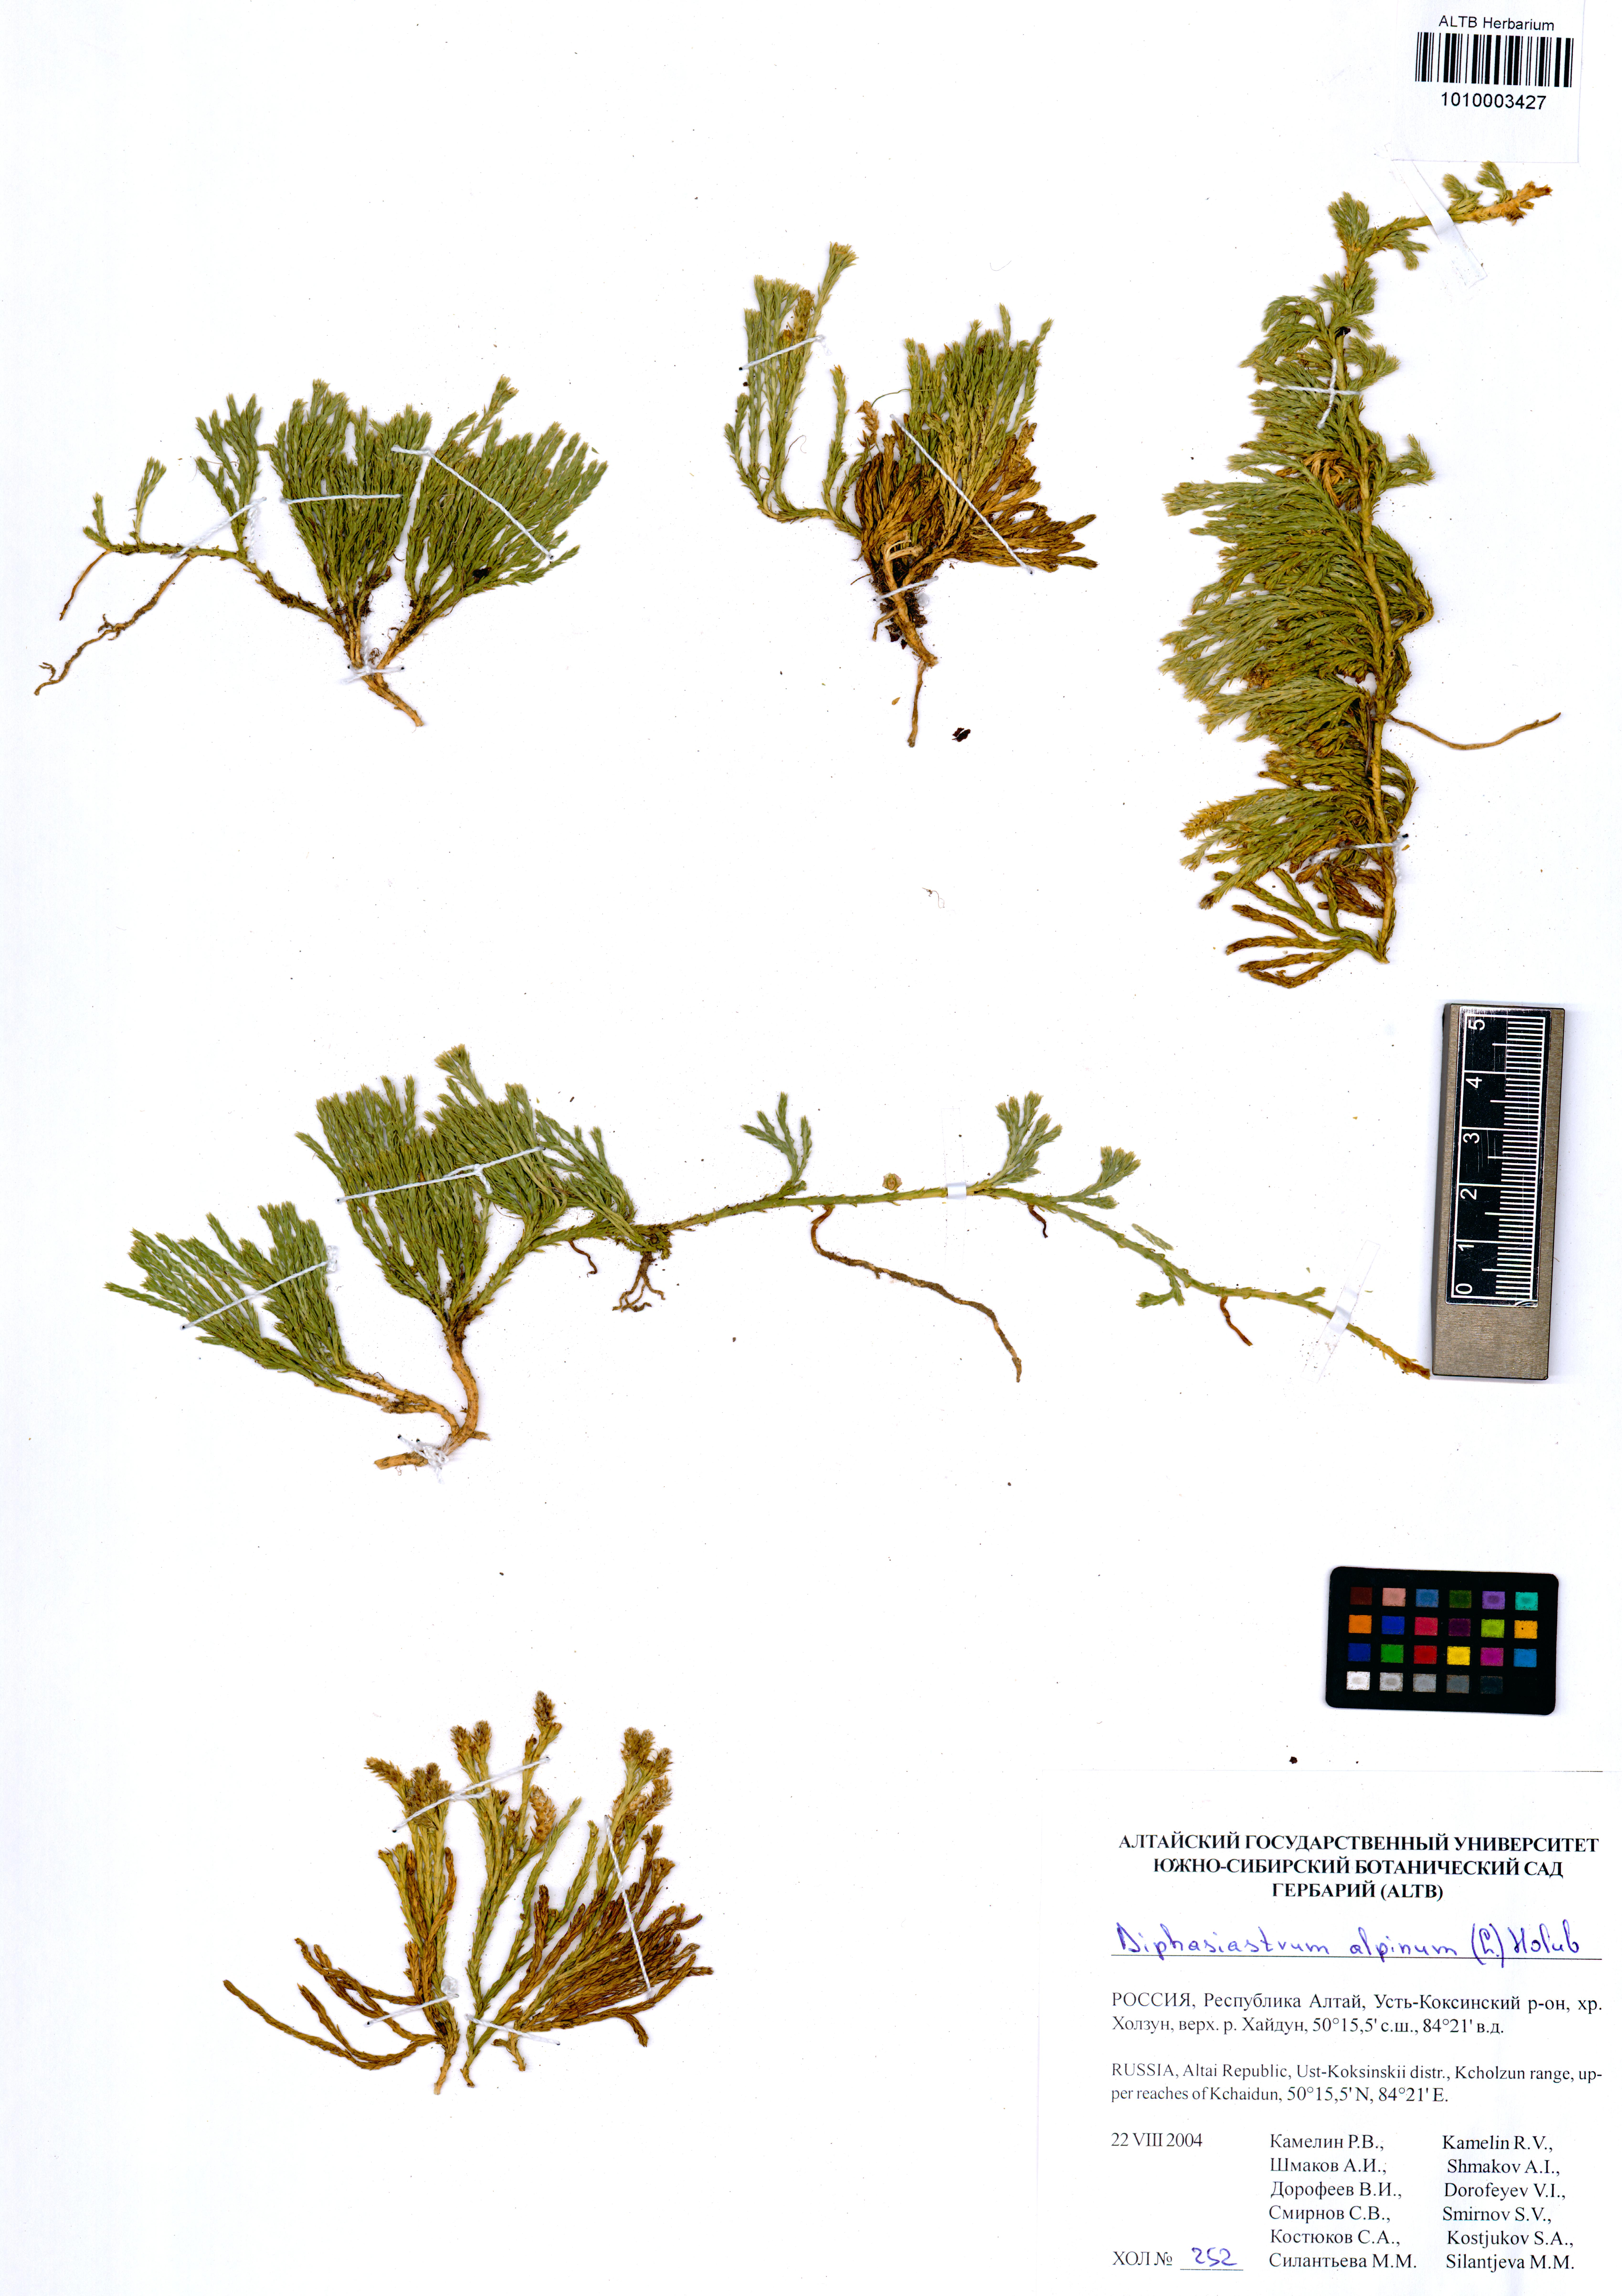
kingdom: Plantae
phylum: Tracheophyta
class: Lycopodiopsida
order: Lycopodiales
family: Lycopodiaceae
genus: Diphasiastrum
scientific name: Diphasiastrum alpinum
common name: Alpine clubmoss
